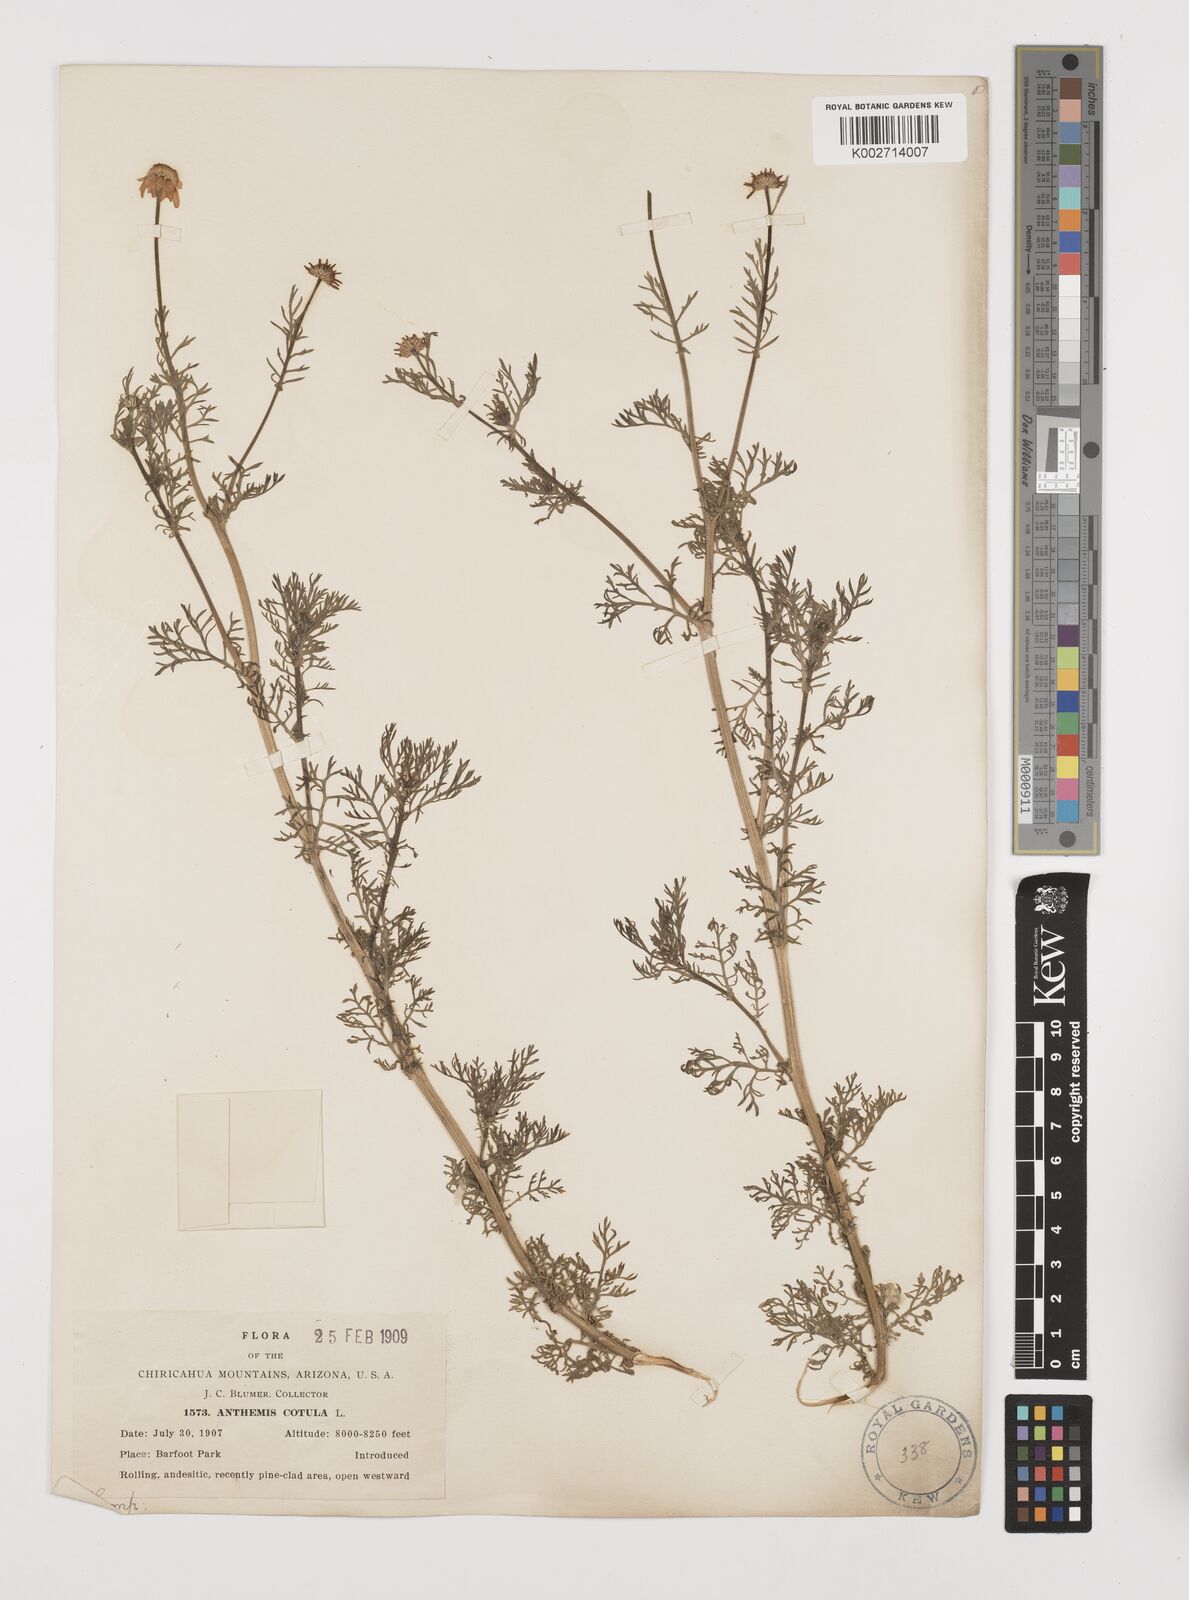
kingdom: Plantae
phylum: Tracheophyta
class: Magnoliopsida
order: Asterales
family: Asteraceae
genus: Anthemis
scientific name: Anthemis cotula
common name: Stinking chamomile
